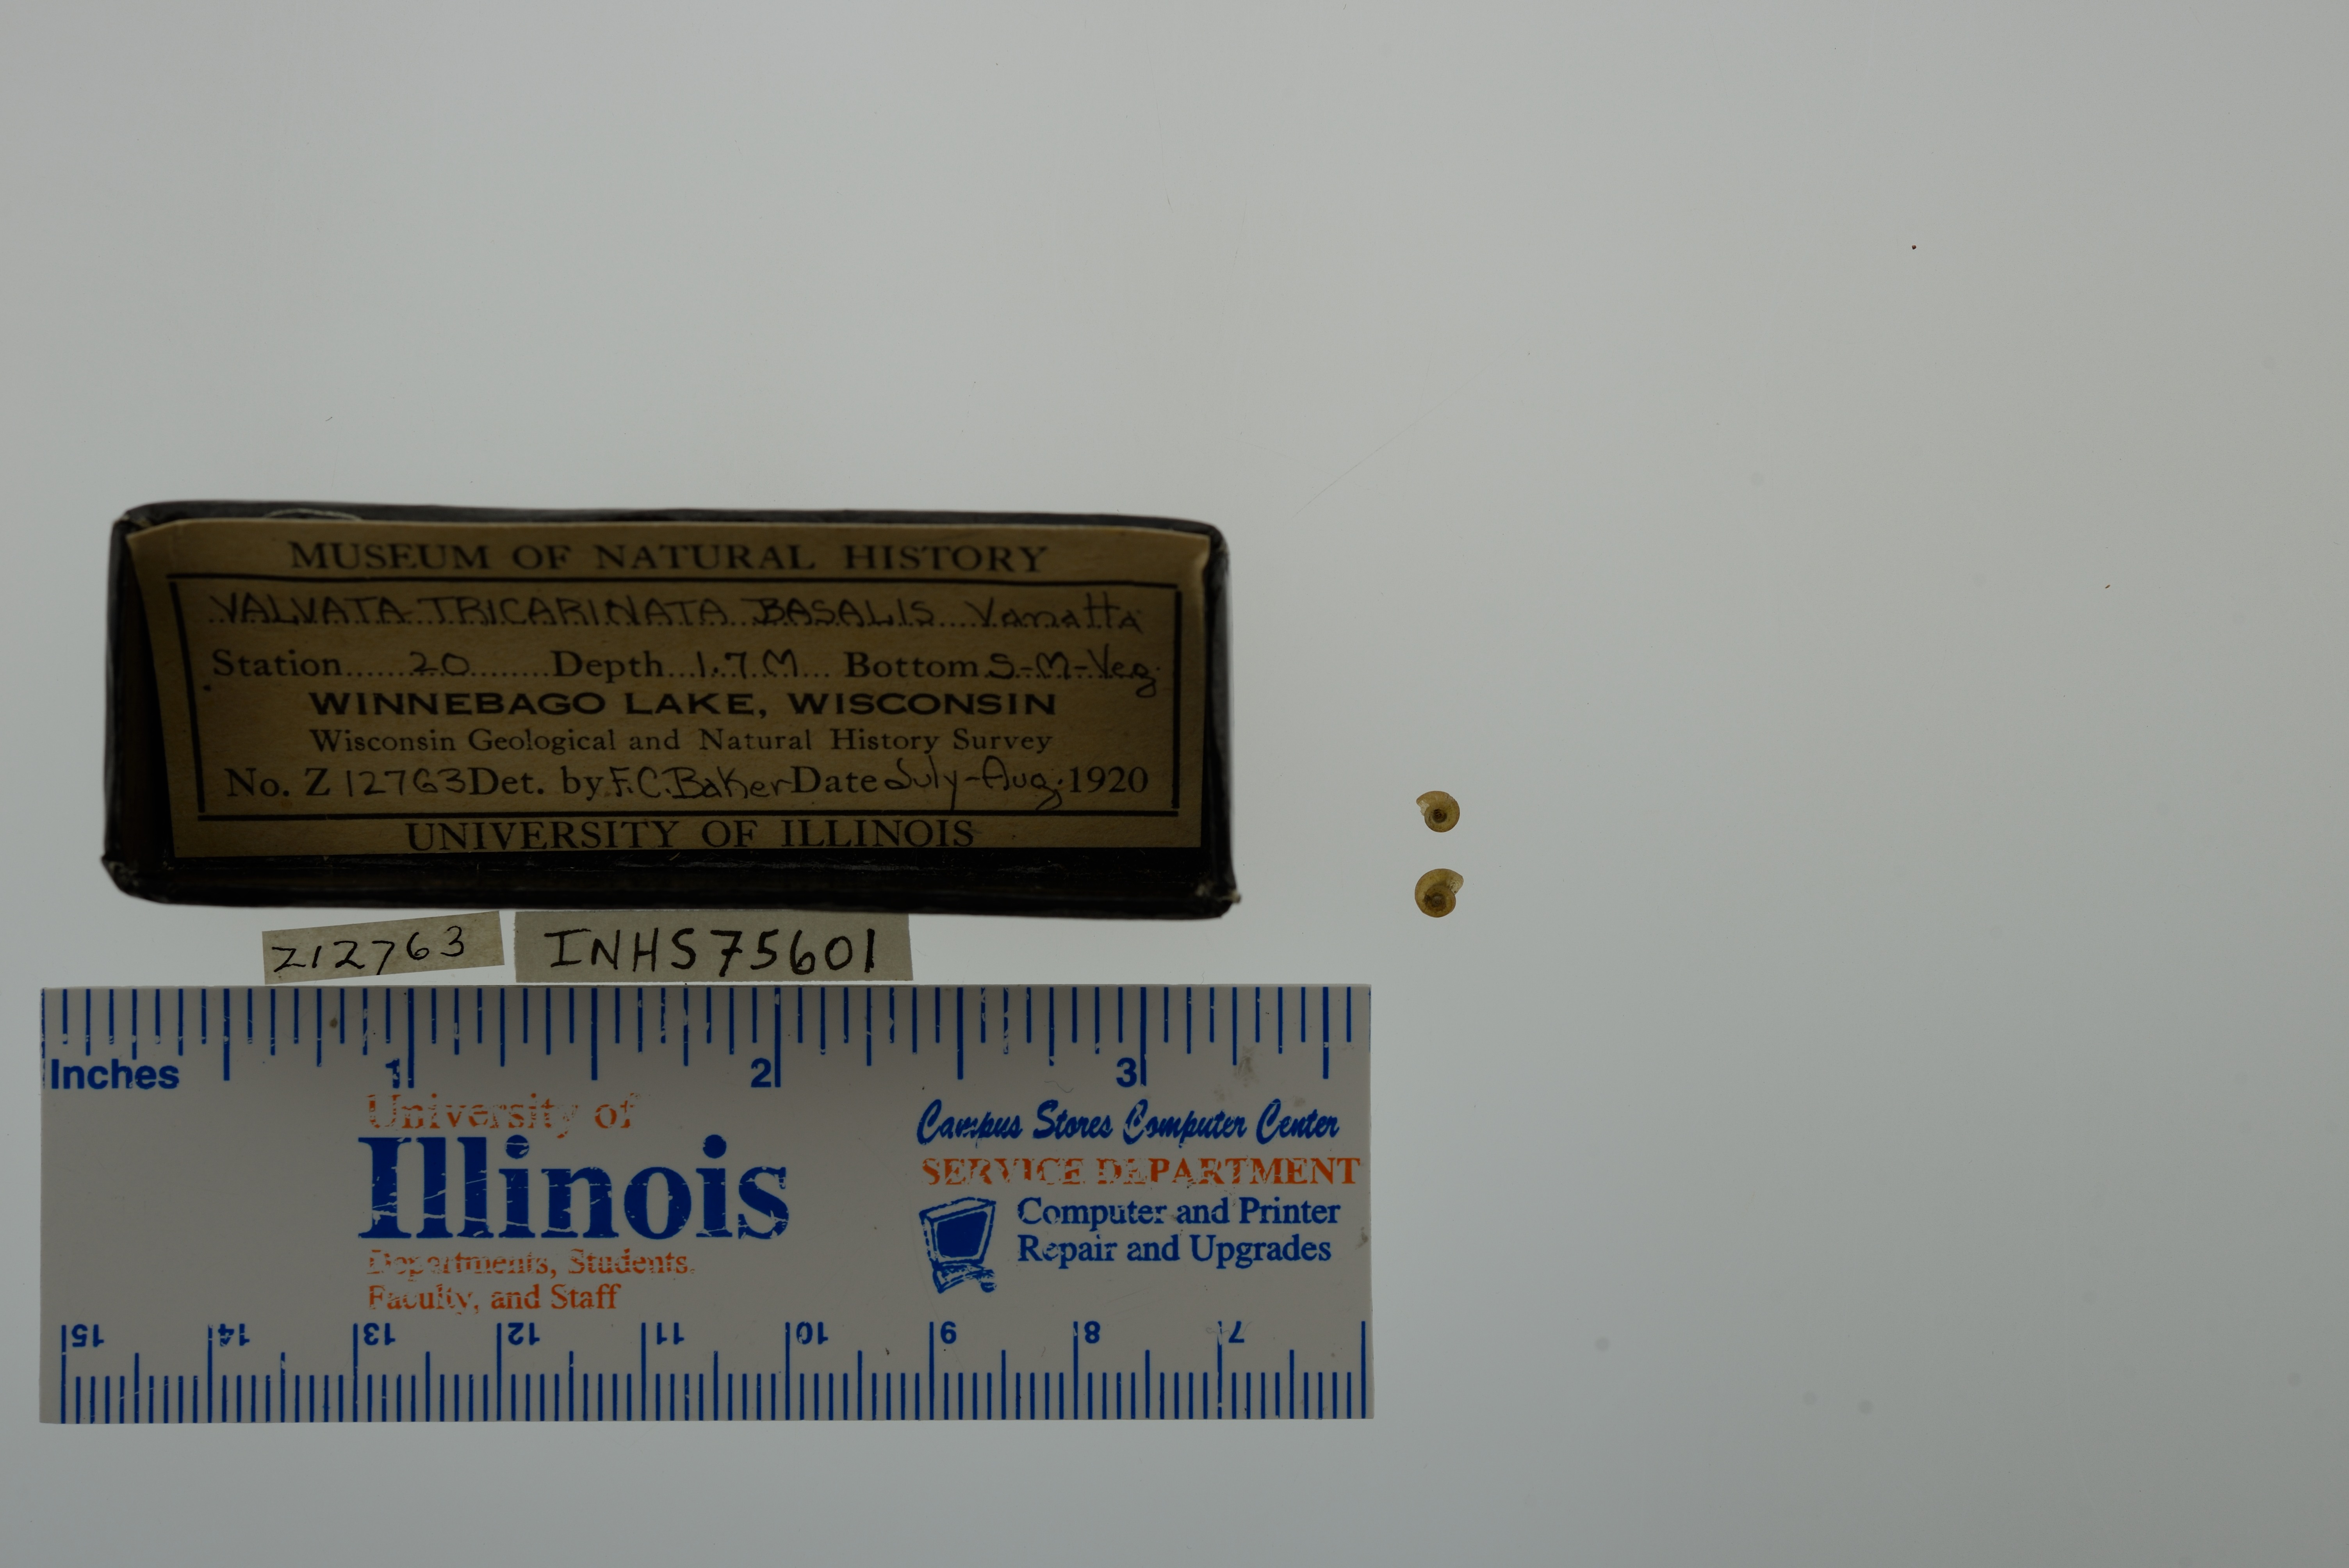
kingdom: Animalia
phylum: Mollusca
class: Gastropoda
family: Valvatidae
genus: Valvata
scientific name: Valvata tricarinata
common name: Three-ridge valvata
